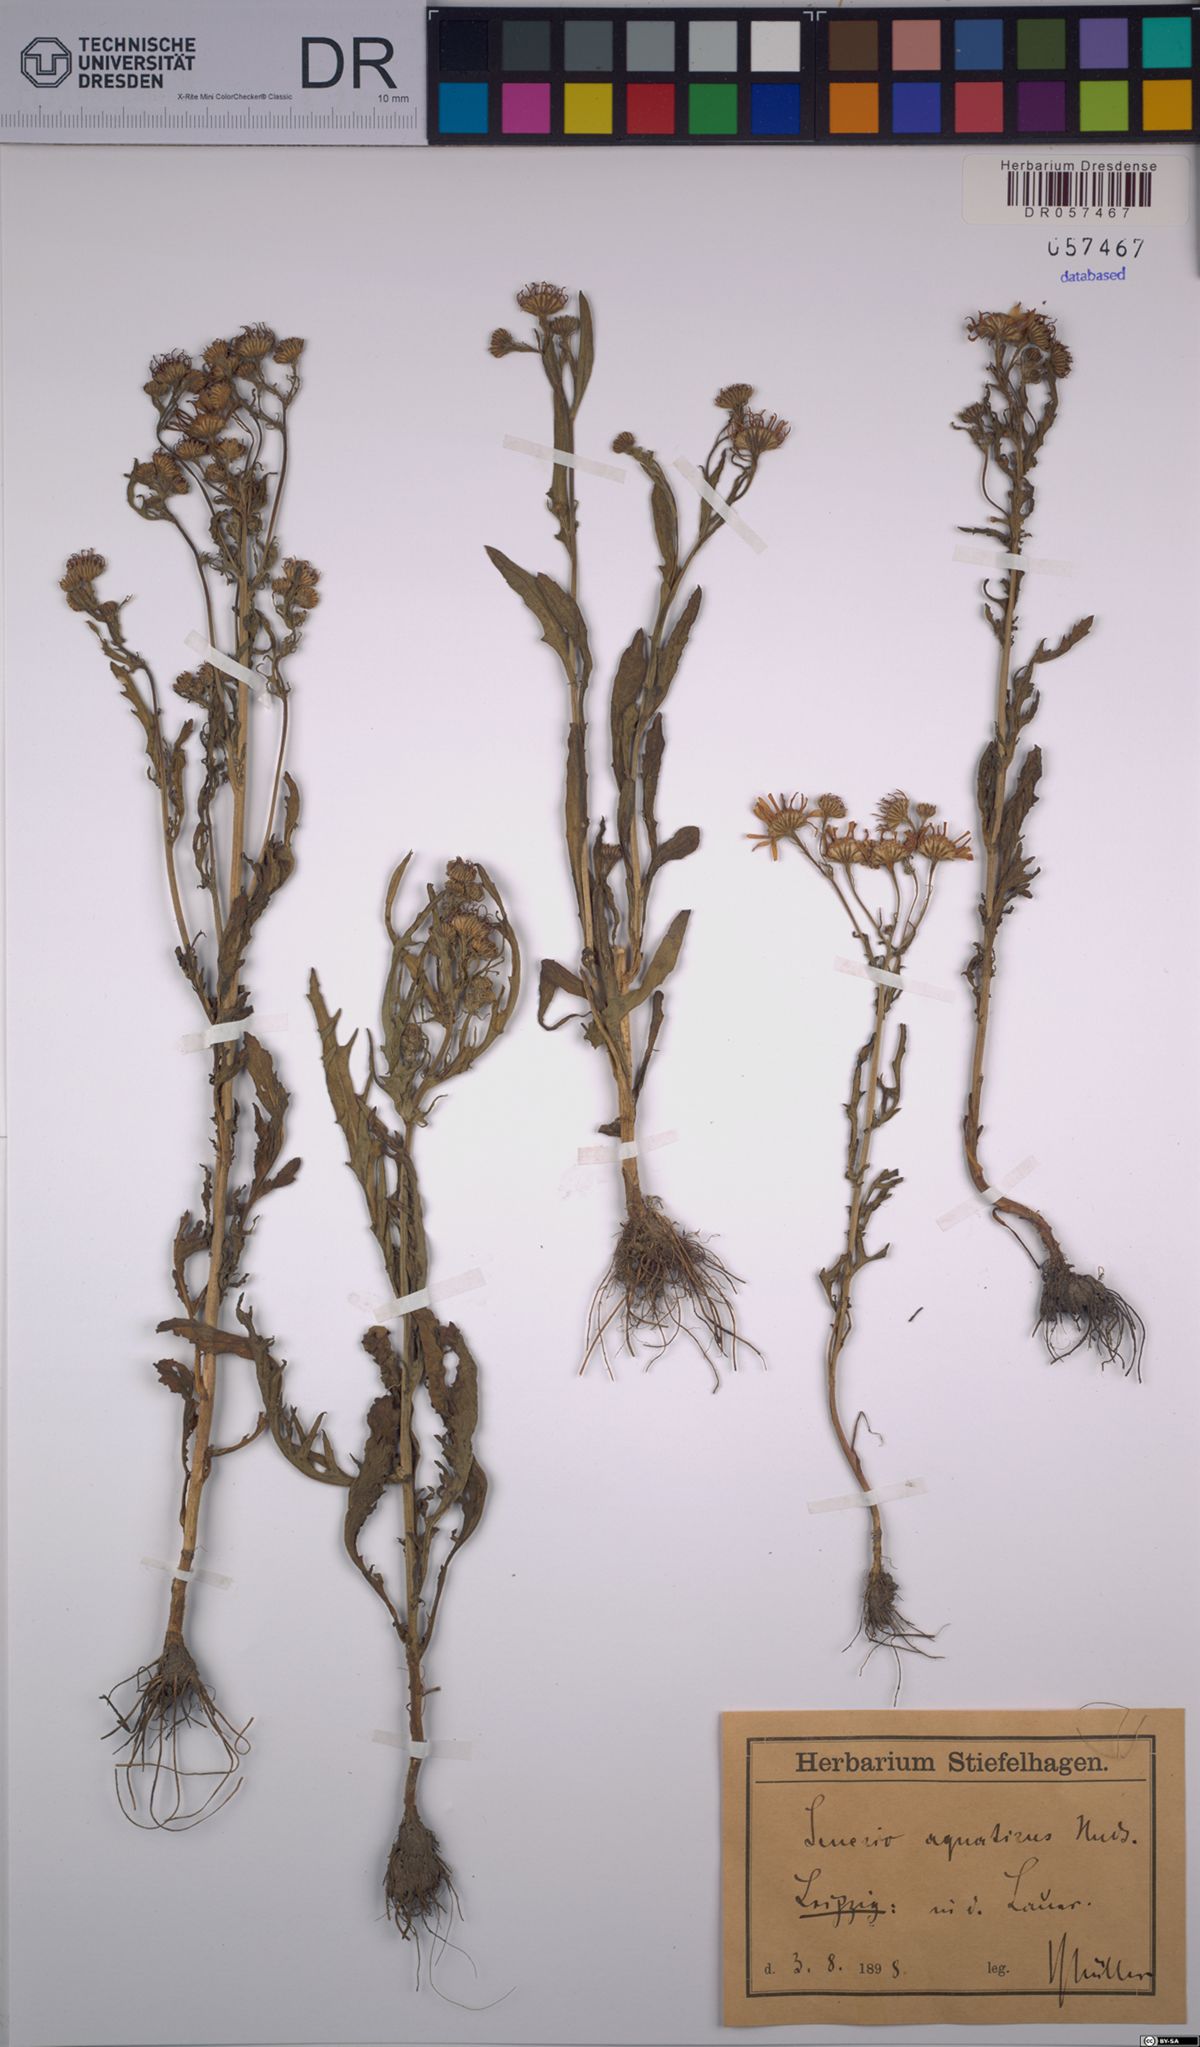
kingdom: Plantae
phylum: Tracheophyta
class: Magnoliopsida
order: Asterales
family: Asteraceae
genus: Jacobaea
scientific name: Jacobaea aquatica
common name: Water ragwort
